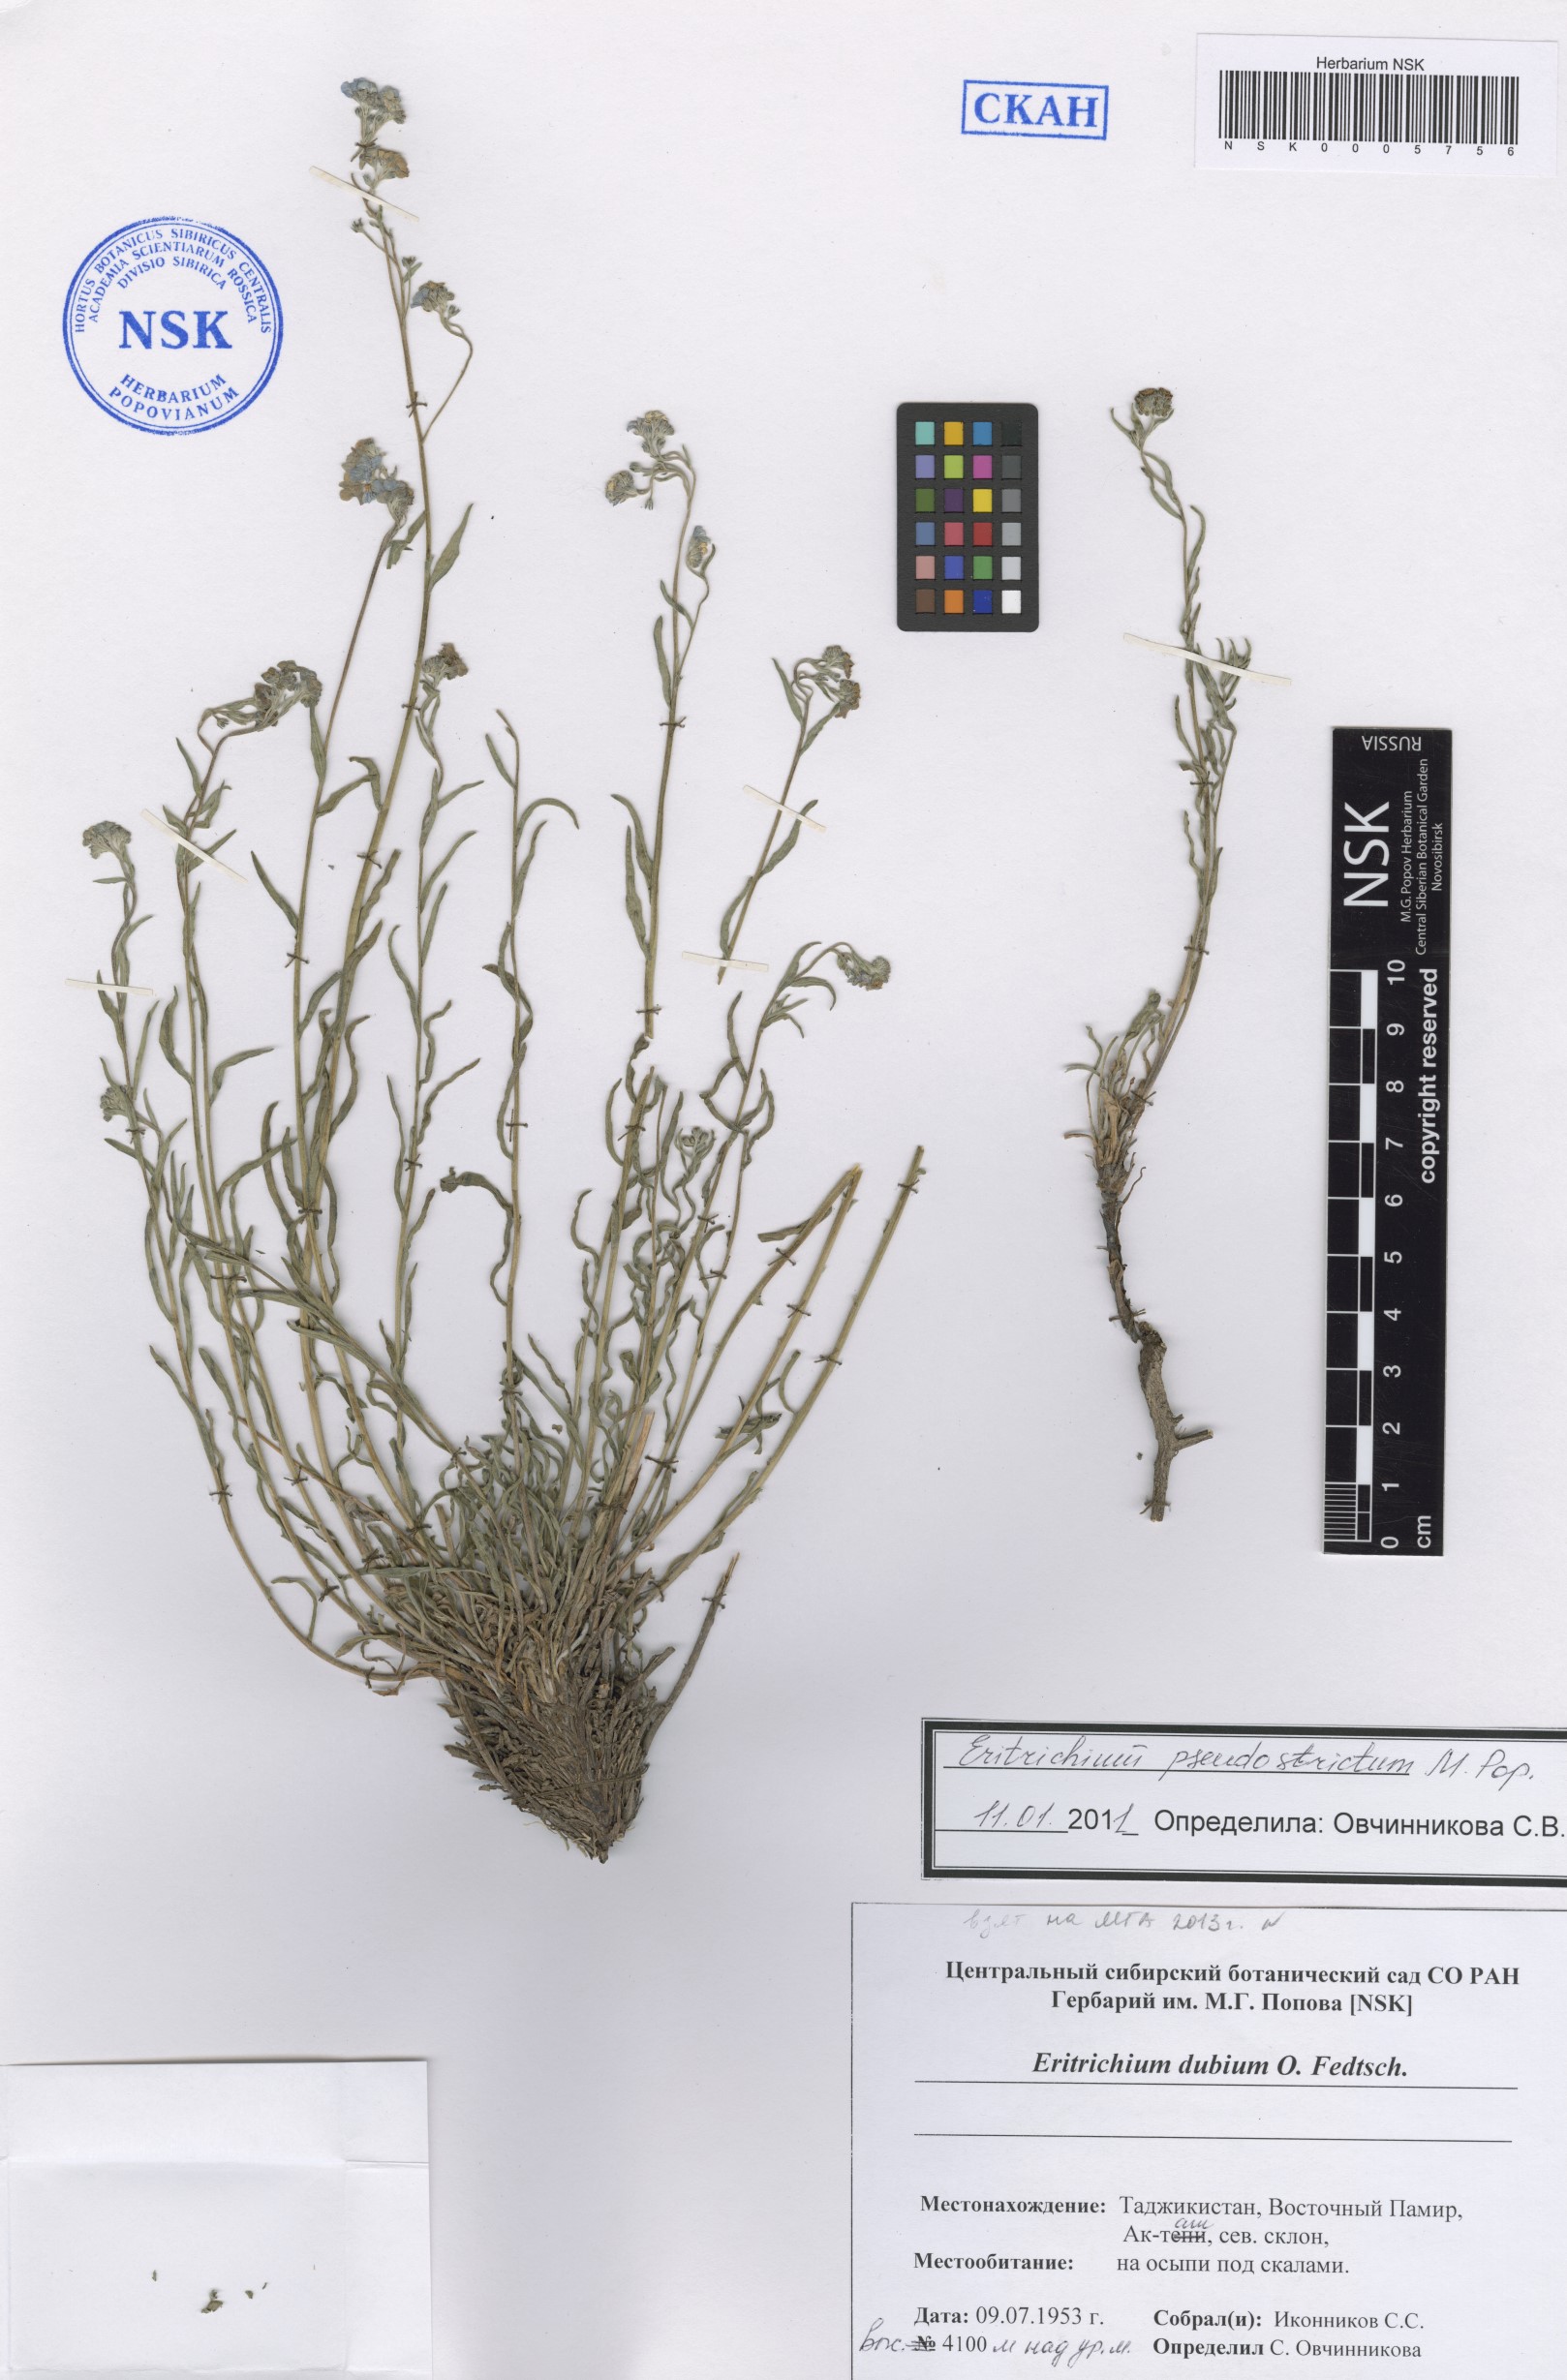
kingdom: Plantae
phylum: Tracheophyta
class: Magnoliopsida
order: Boraginales
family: Boraginaceae
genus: Eritrichium
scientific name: Eritrichium pseudostrictum
